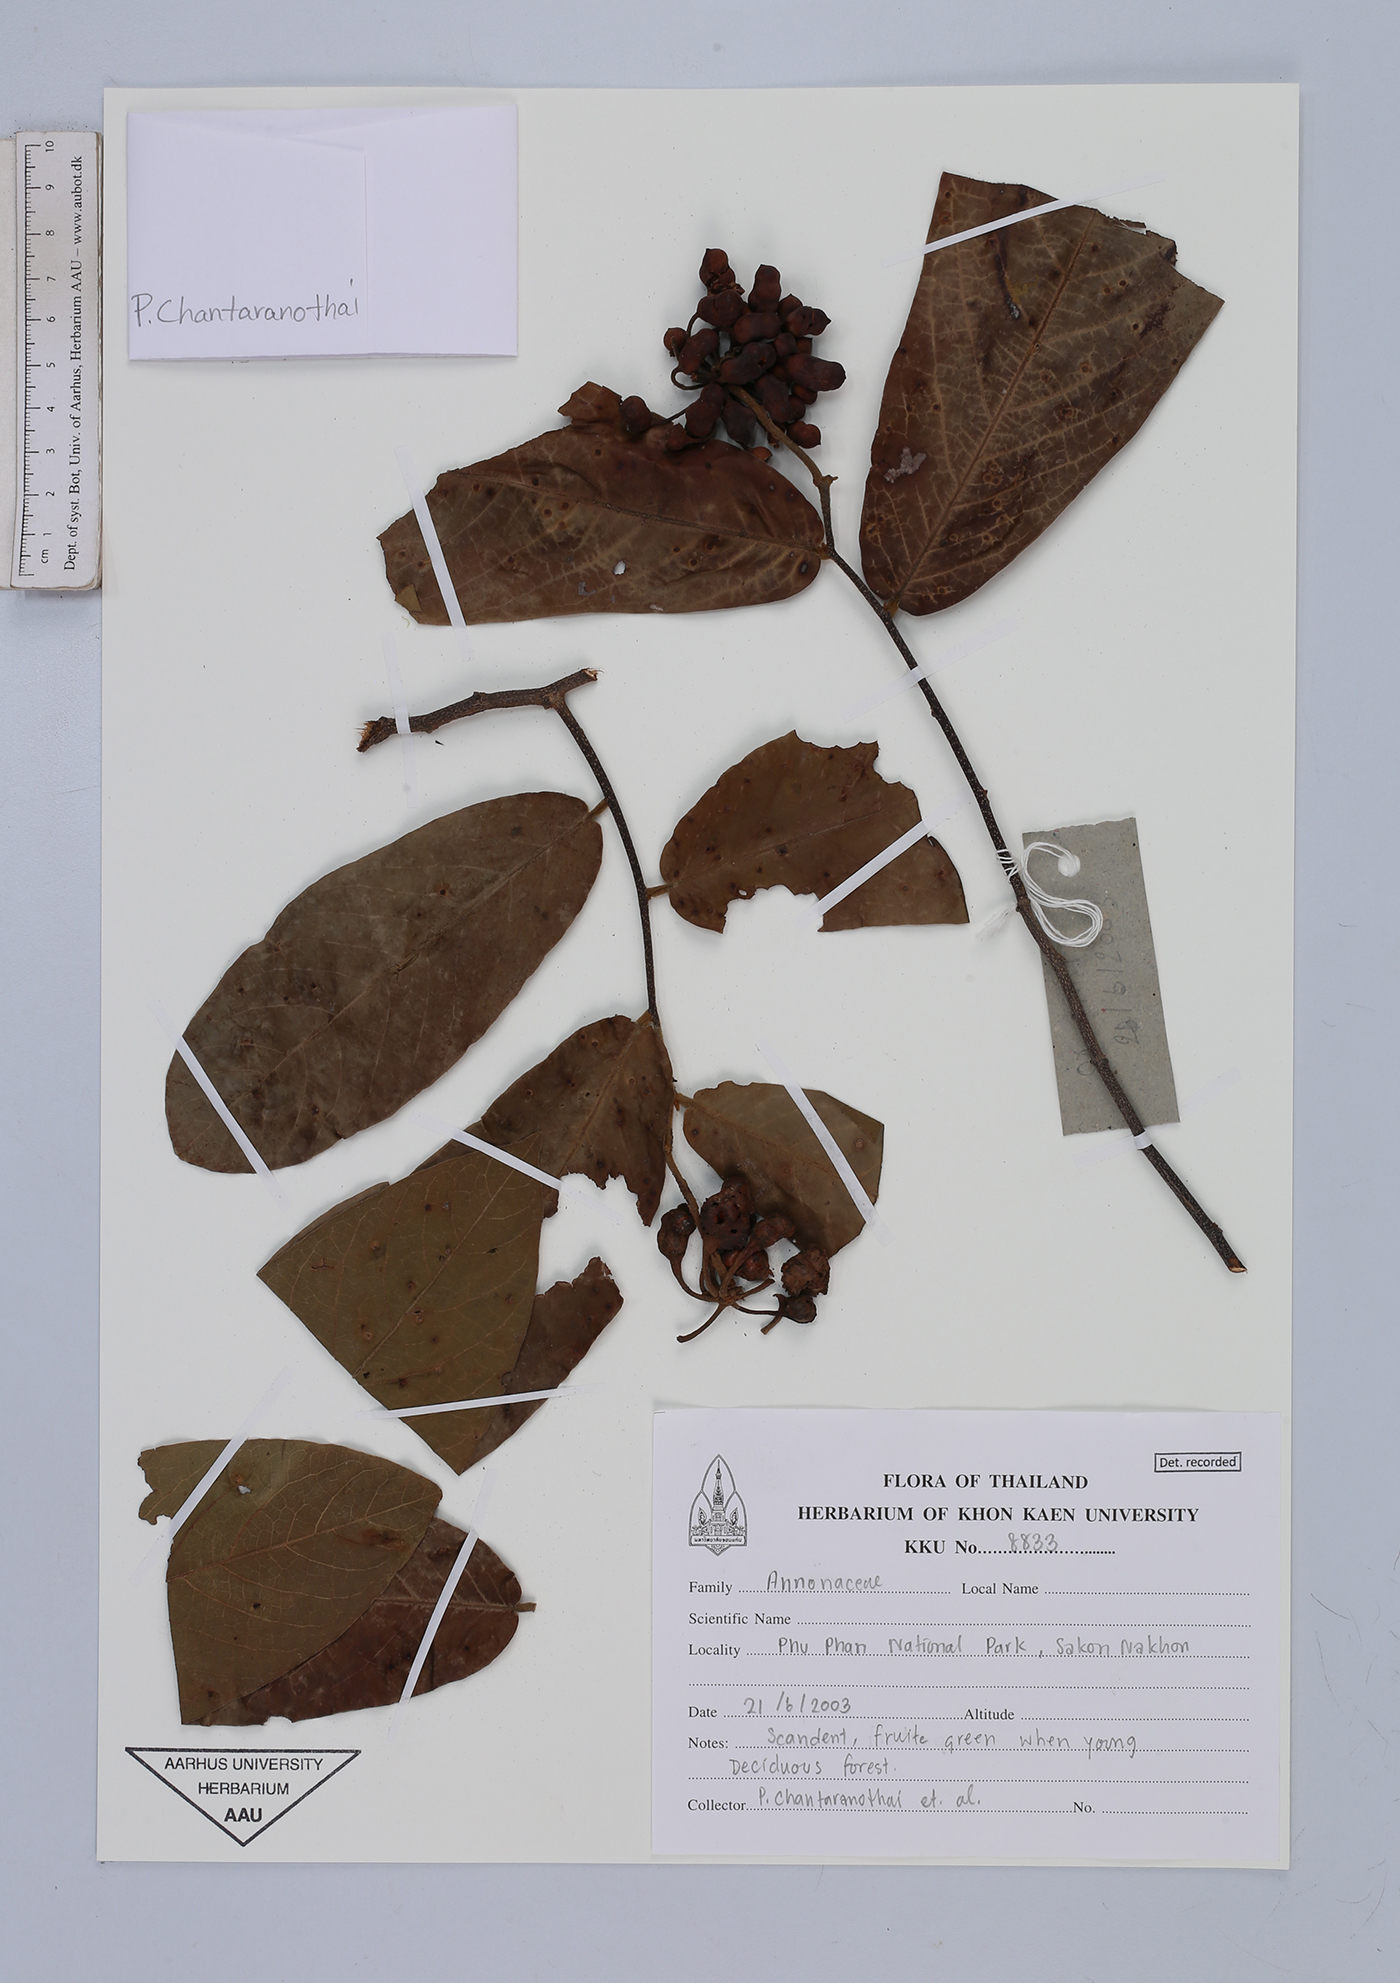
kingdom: Plantae
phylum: Tracheophyta
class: Magnoliopsida
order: Magnoliales
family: Annonaceae
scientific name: Annonaceae
